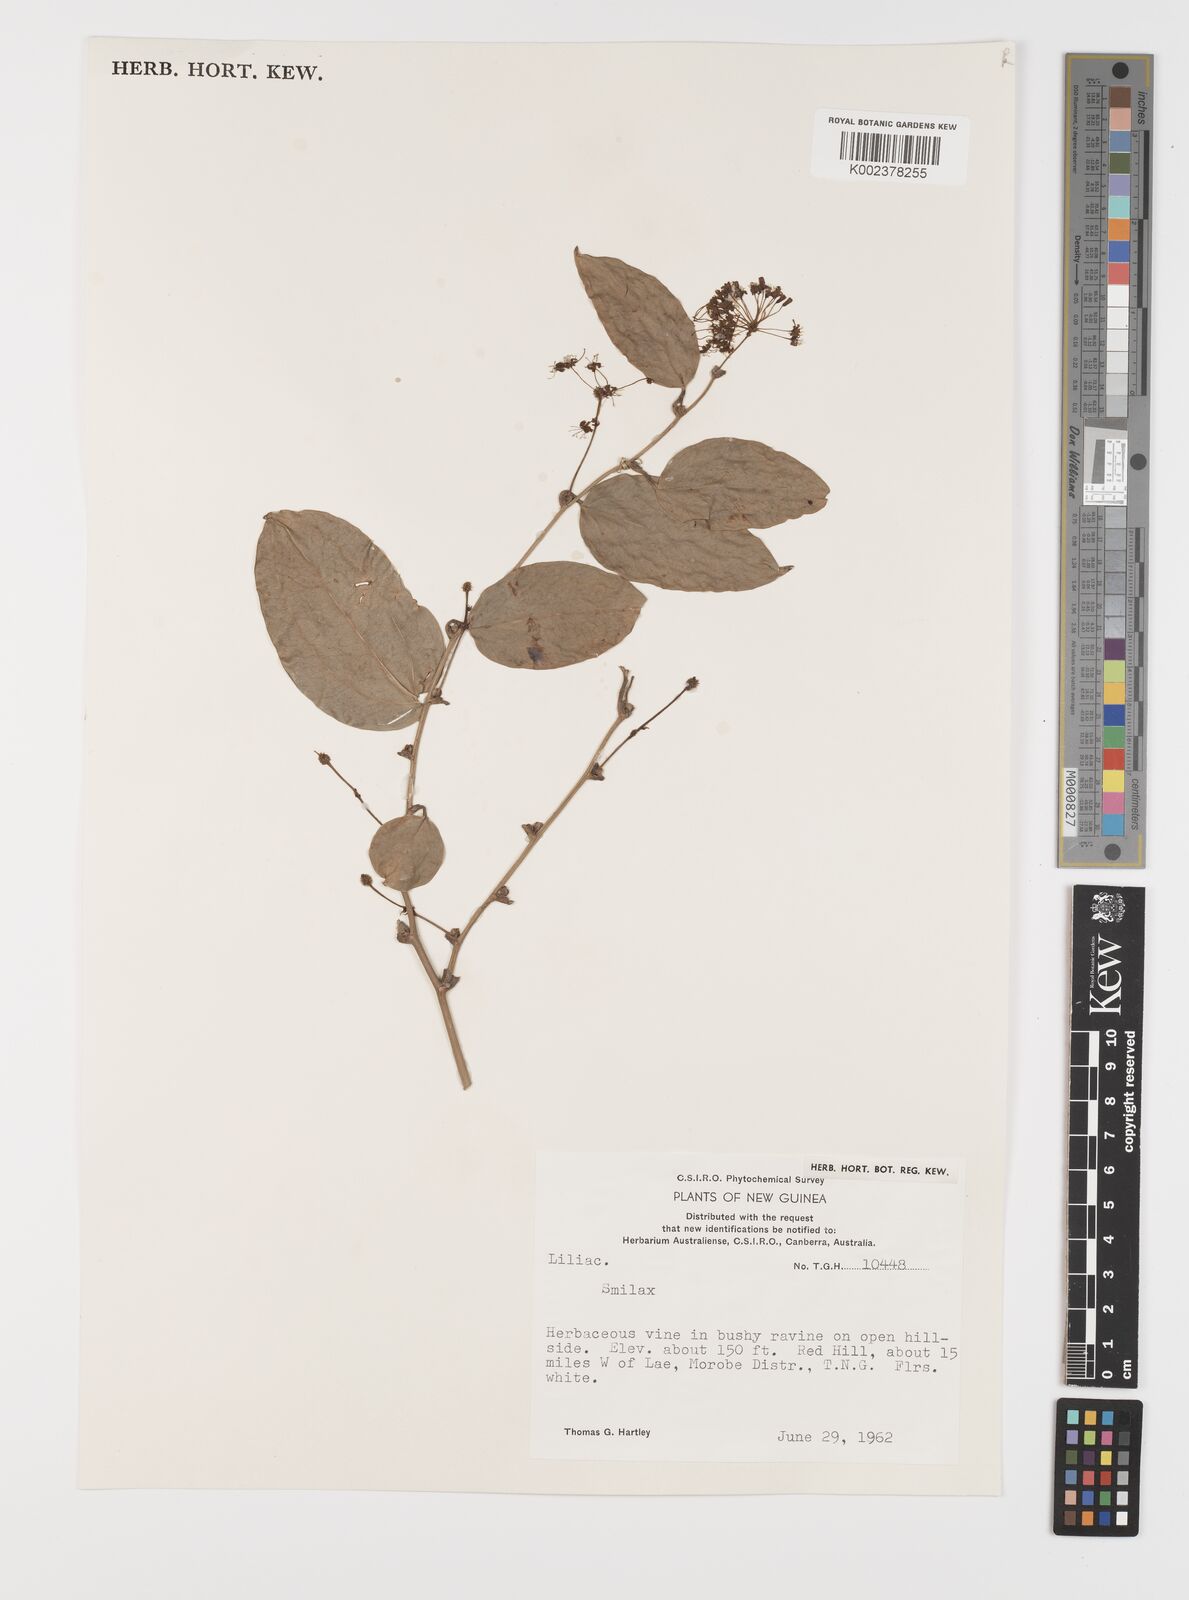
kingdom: Plantae
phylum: Tracheophyta
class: Liliopsida
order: Liliales
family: Smilacaceae
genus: Smilax
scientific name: Smilax
